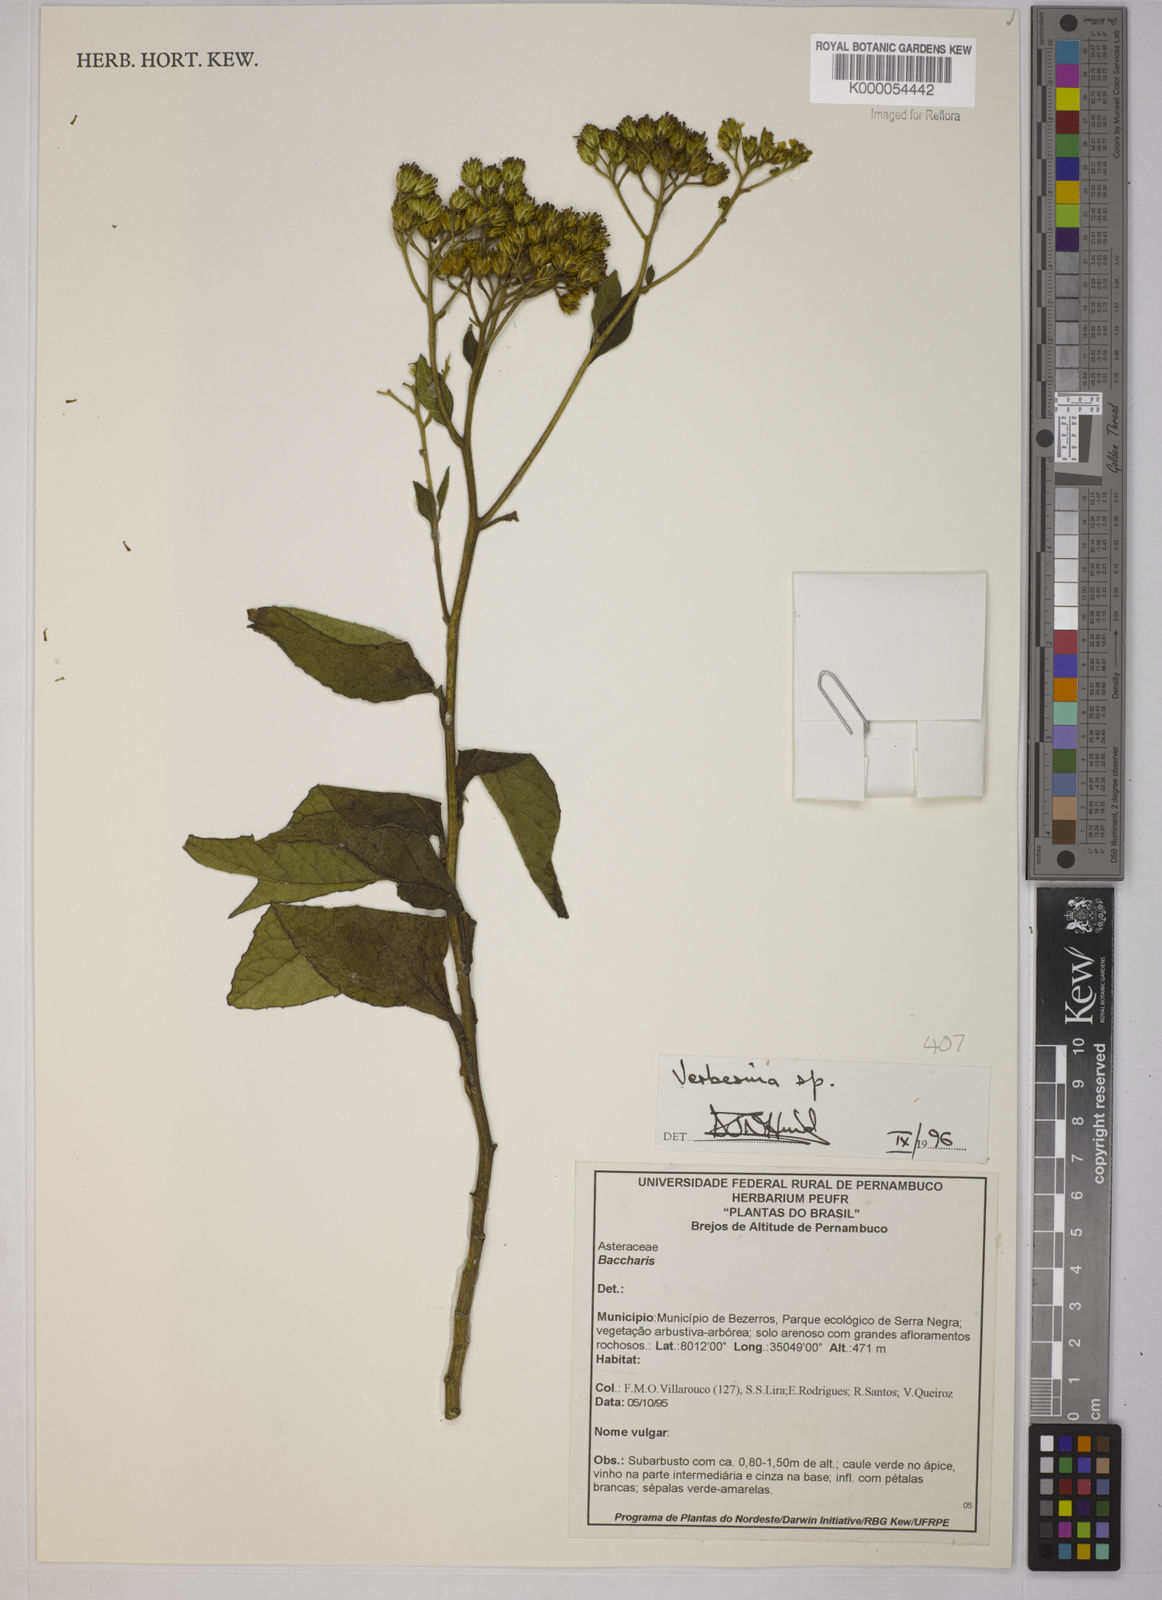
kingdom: Plantae
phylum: Tracheophyta
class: Magnoliopsida
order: Asterales
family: Asteraceae
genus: Verbesina
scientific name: Verbesina
